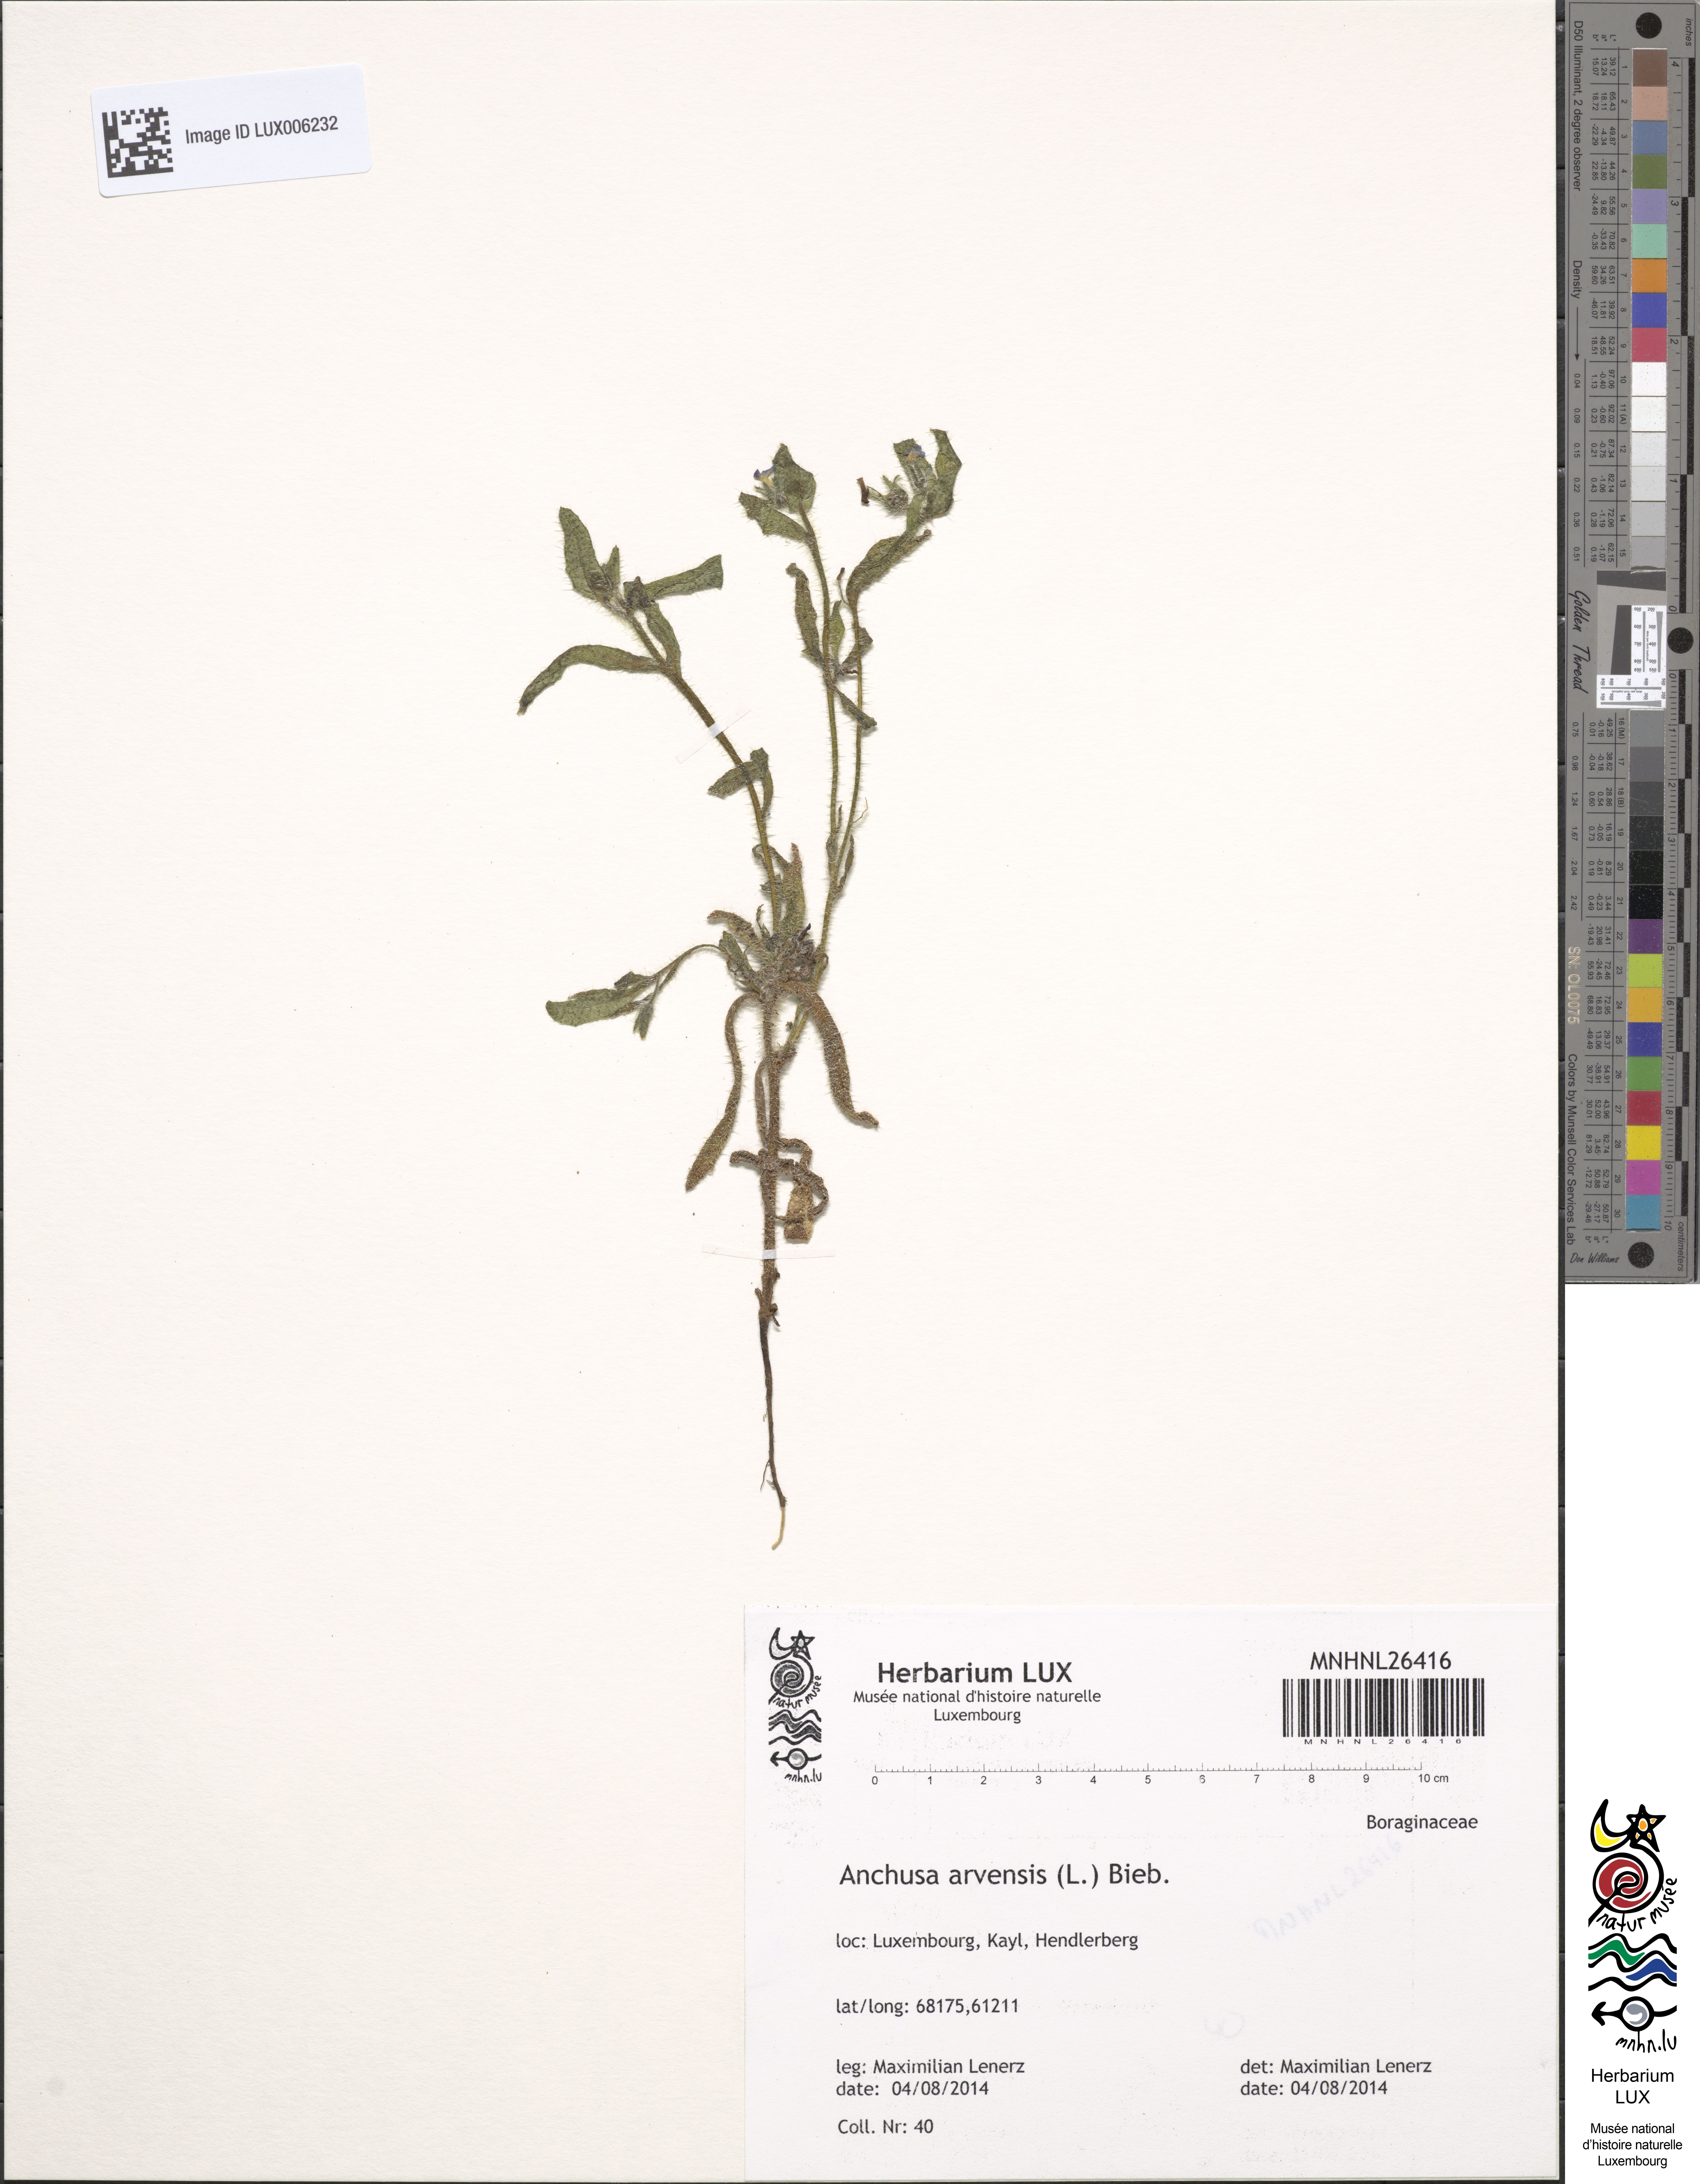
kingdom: Plantae
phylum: Tracheophyta
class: Magnoliopsida
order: Boraginales
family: Boraginaceae
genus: Lycopsis
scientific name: Lycopsis arvensis
